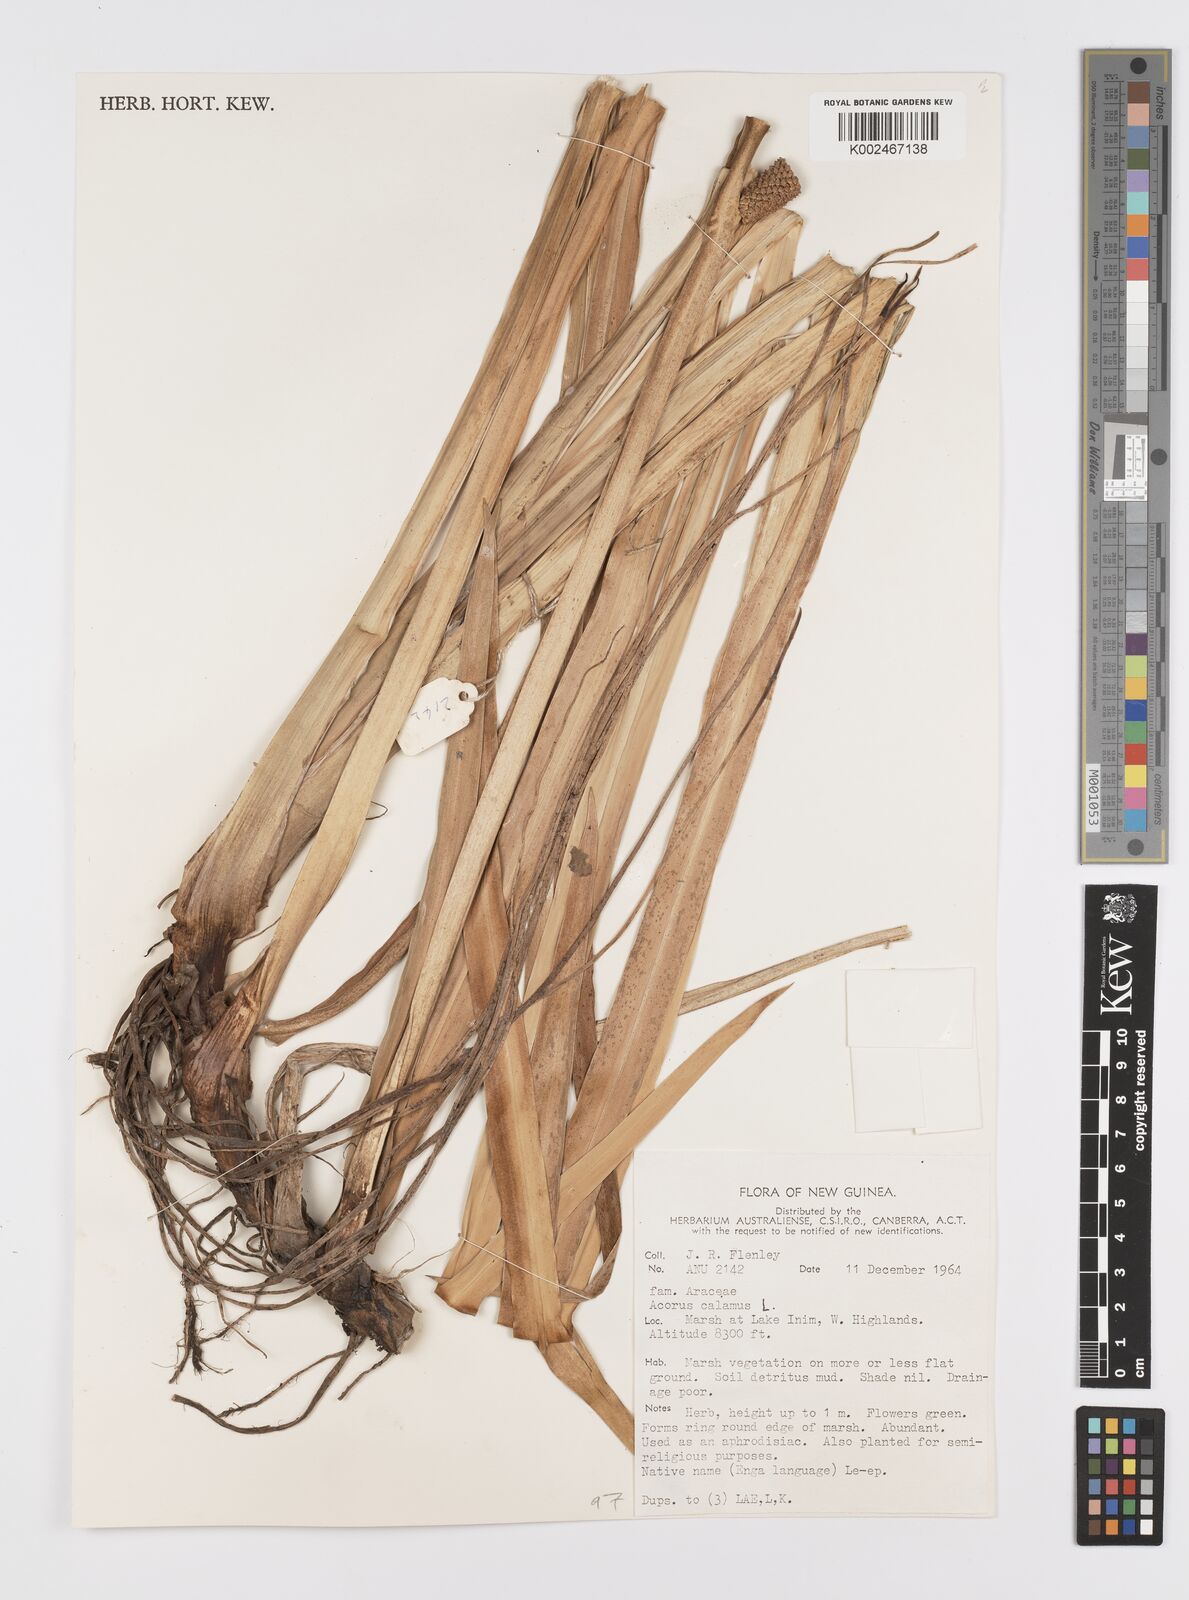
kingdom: Plantae
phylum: Tracheophyta
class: Liliopsida
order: Acorales
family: Acoraceae
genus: Acorus
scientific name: Acorus calamus
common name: Sweet-flag
